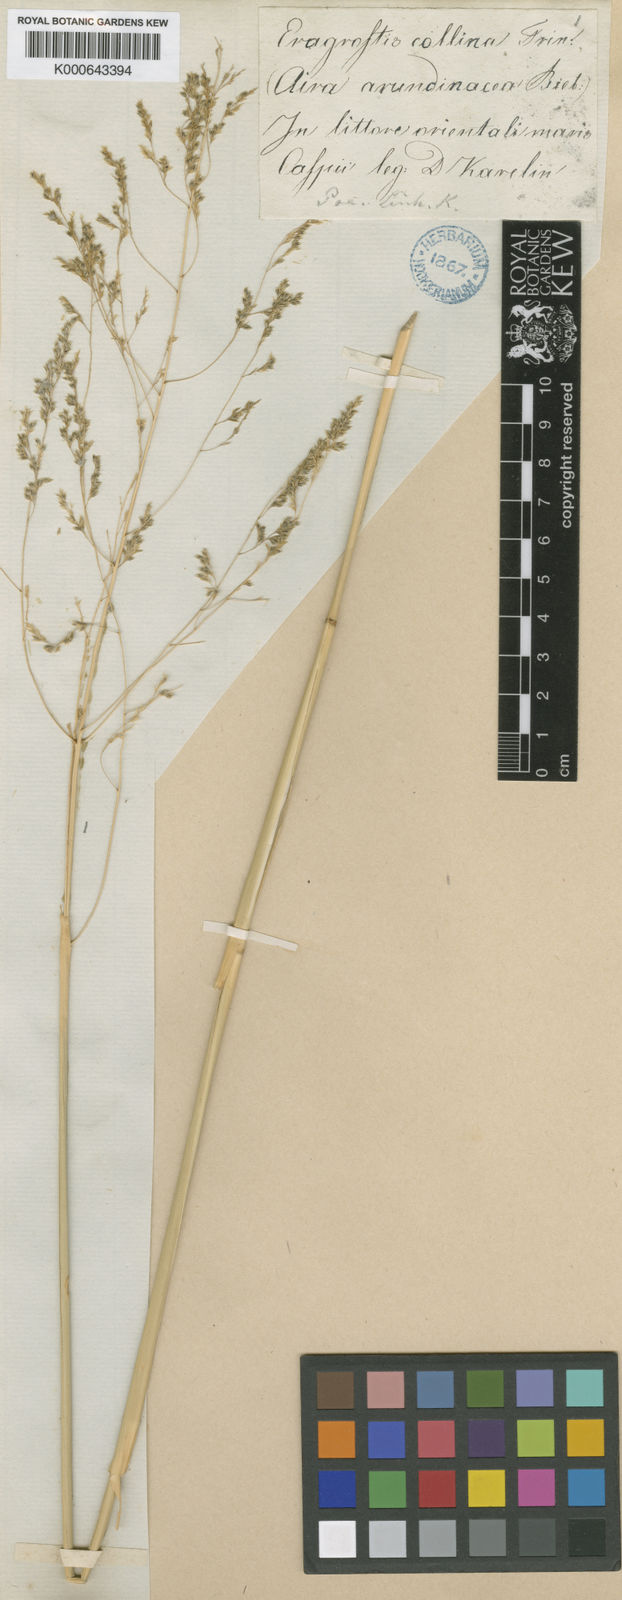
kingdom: Plantae
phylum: Tracheophyta
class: Liliopsida
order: Poales
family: Poaceae
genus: Eragrostis
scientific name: Eragrostis collina
